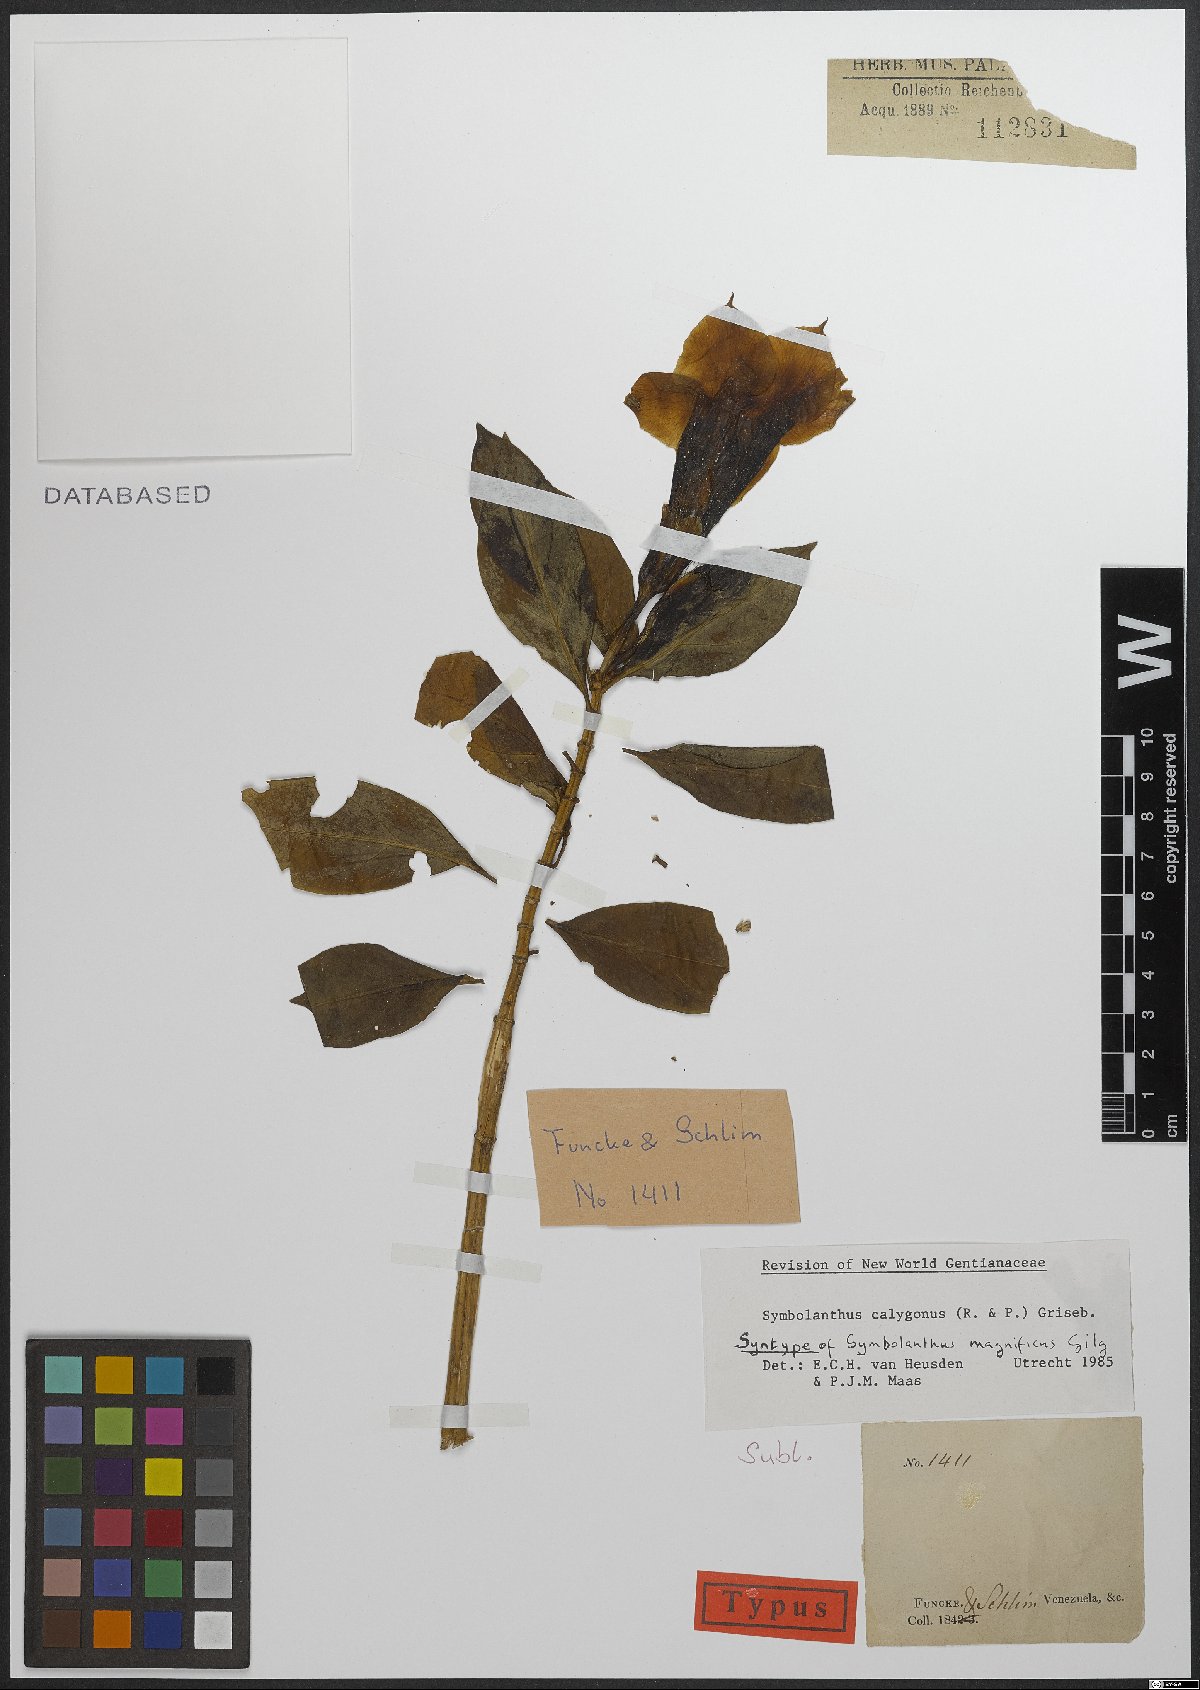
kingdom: Plantae
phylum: Tracheophyta
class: Magnoliopsida
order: Gentianales
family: Gentianaceae
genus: Symbolanthus
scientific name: Symbolanthus superbus
